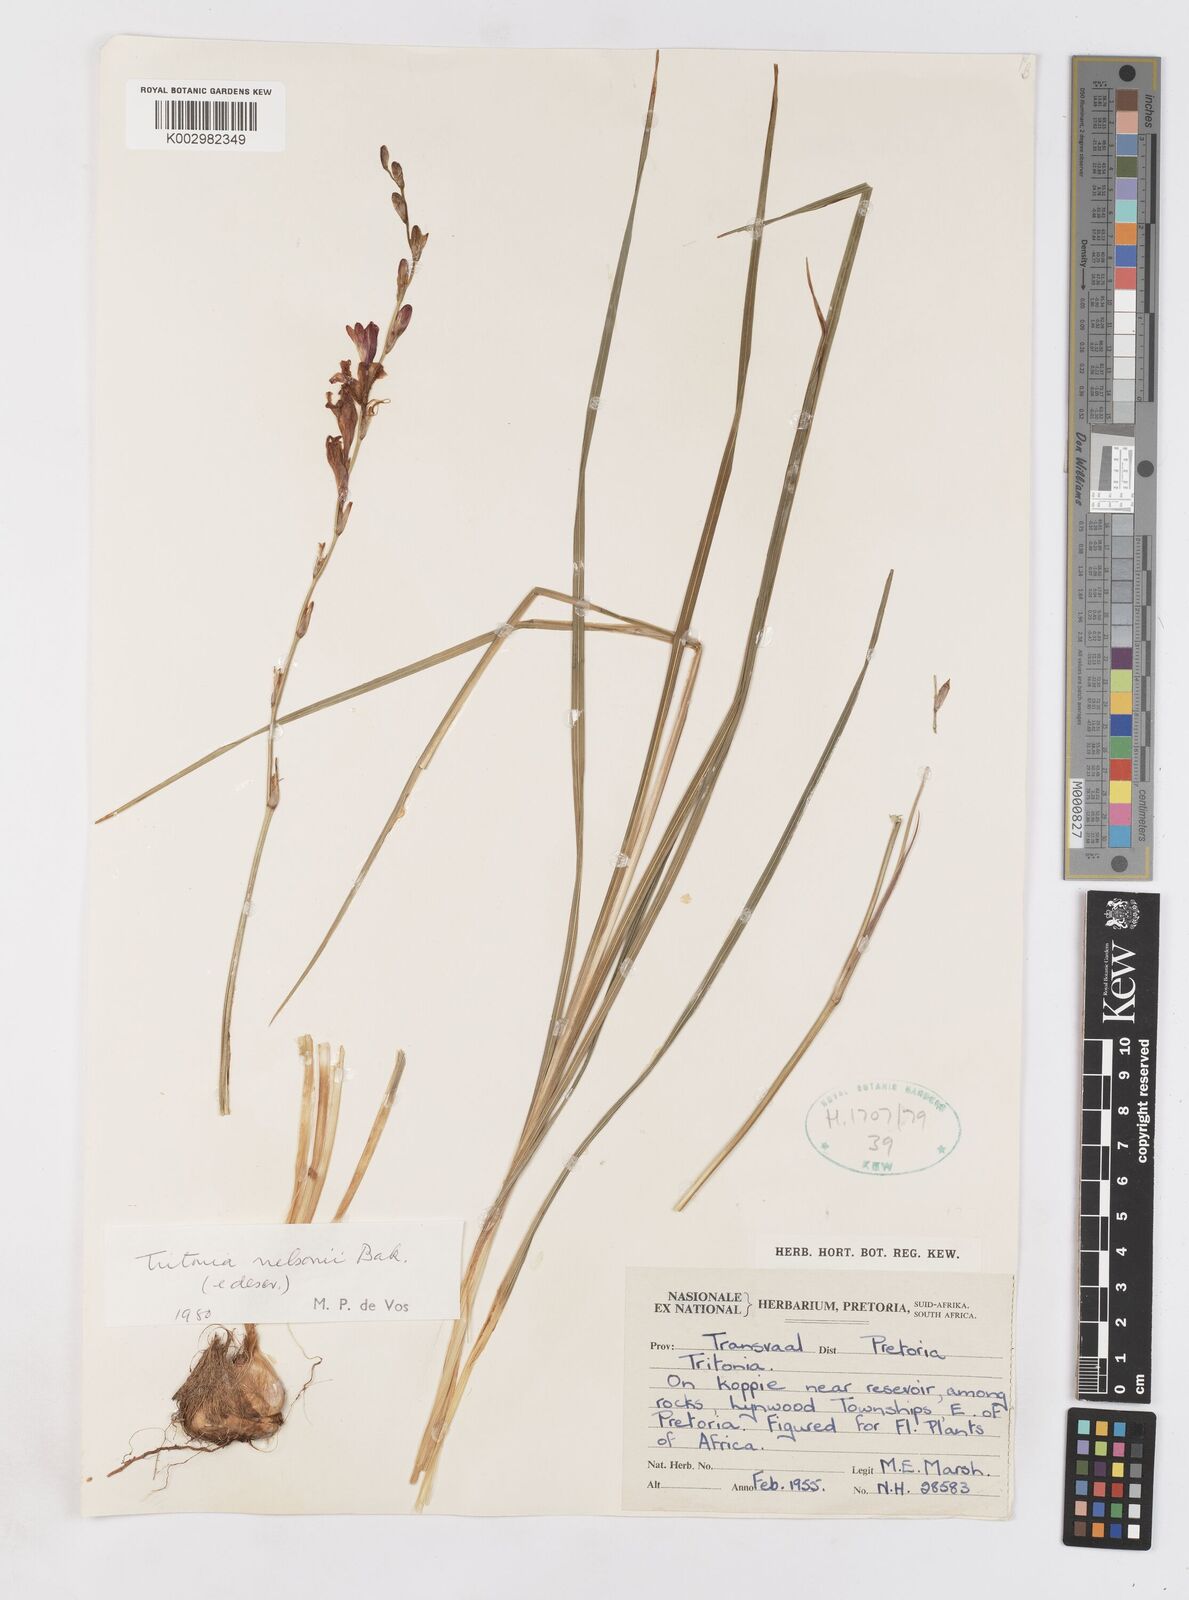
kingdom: Plantae
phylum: Tracheophyta
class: Liliopsida
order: Asparagales
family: Iridaceae
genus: Tritonia
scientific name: Tritonia nelsonii
